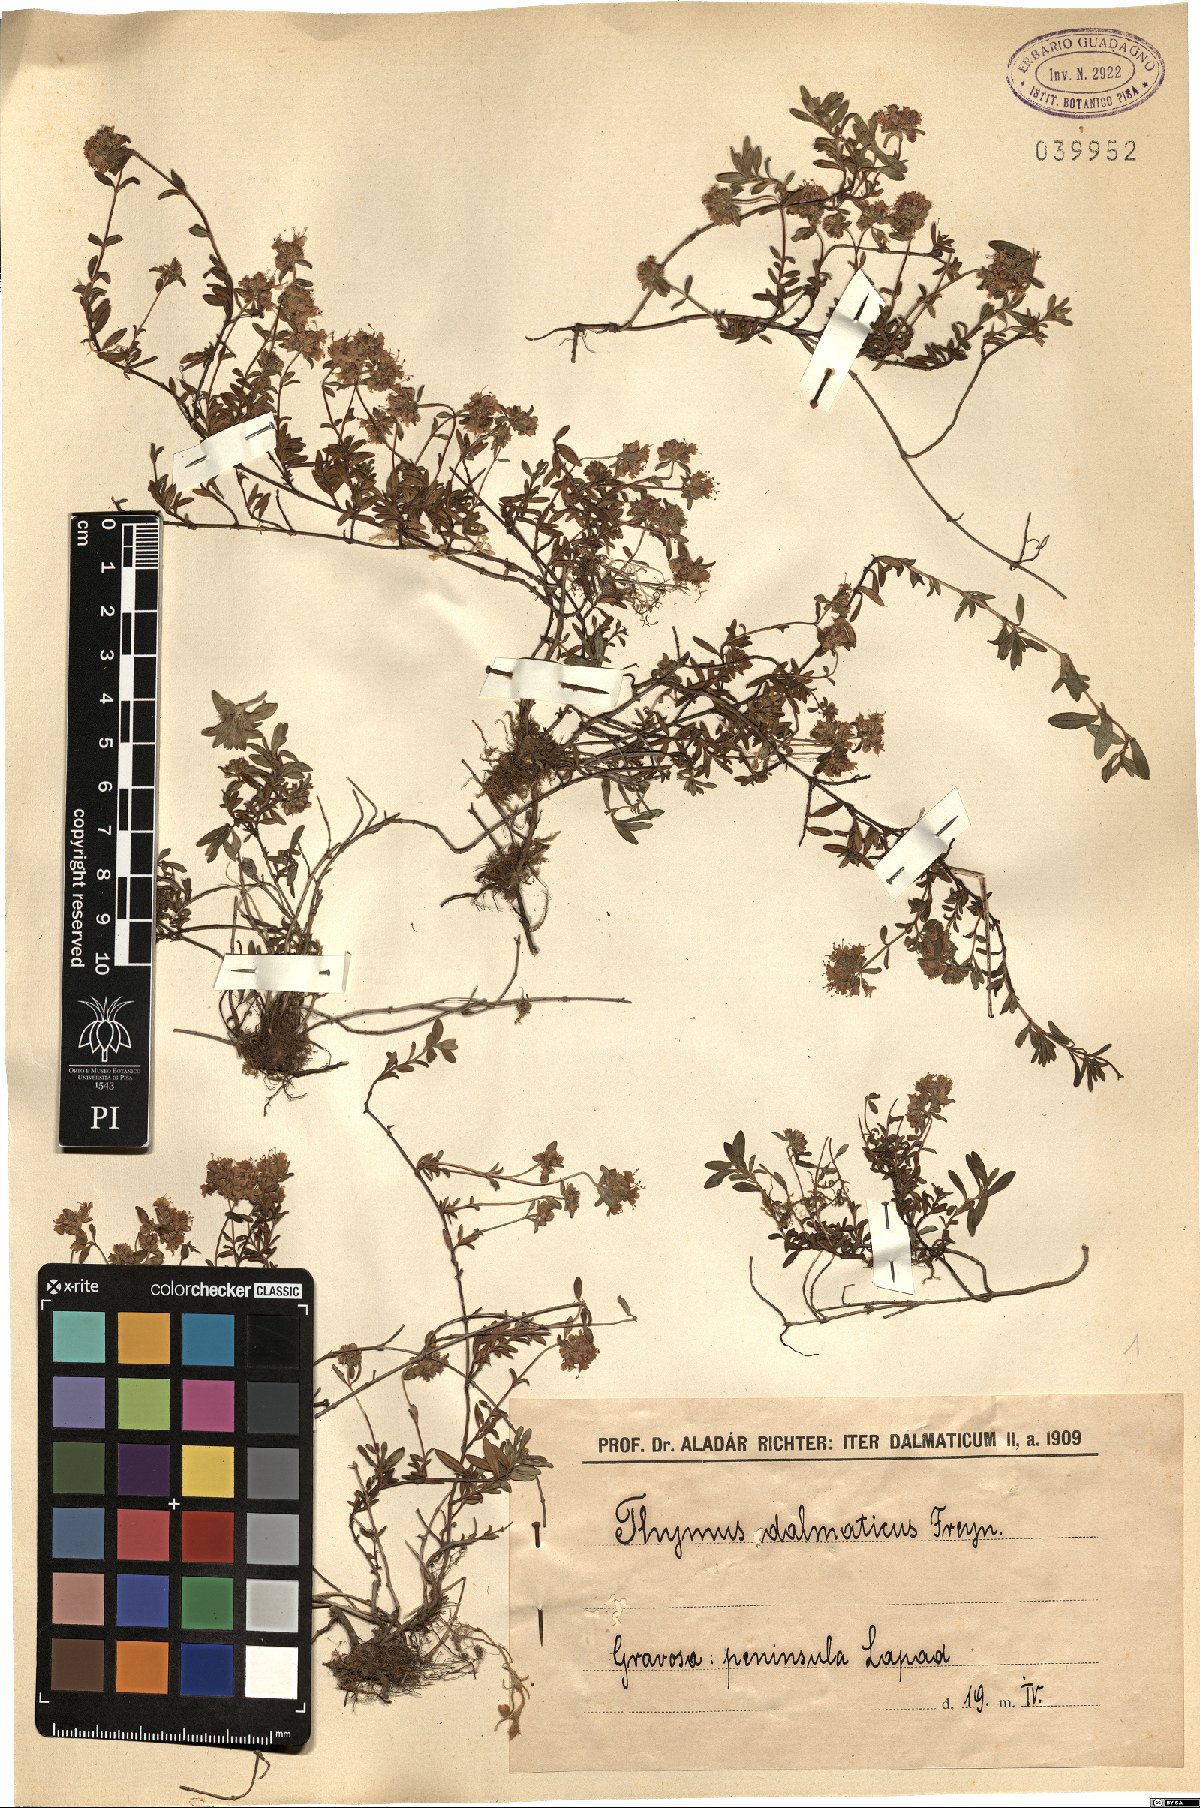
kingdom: Plantae
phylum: Tracheophyta
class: Magnoliopsida
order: Lamiales
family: Lamiaceae
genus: Thymus
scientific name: Thymus longicaulis
